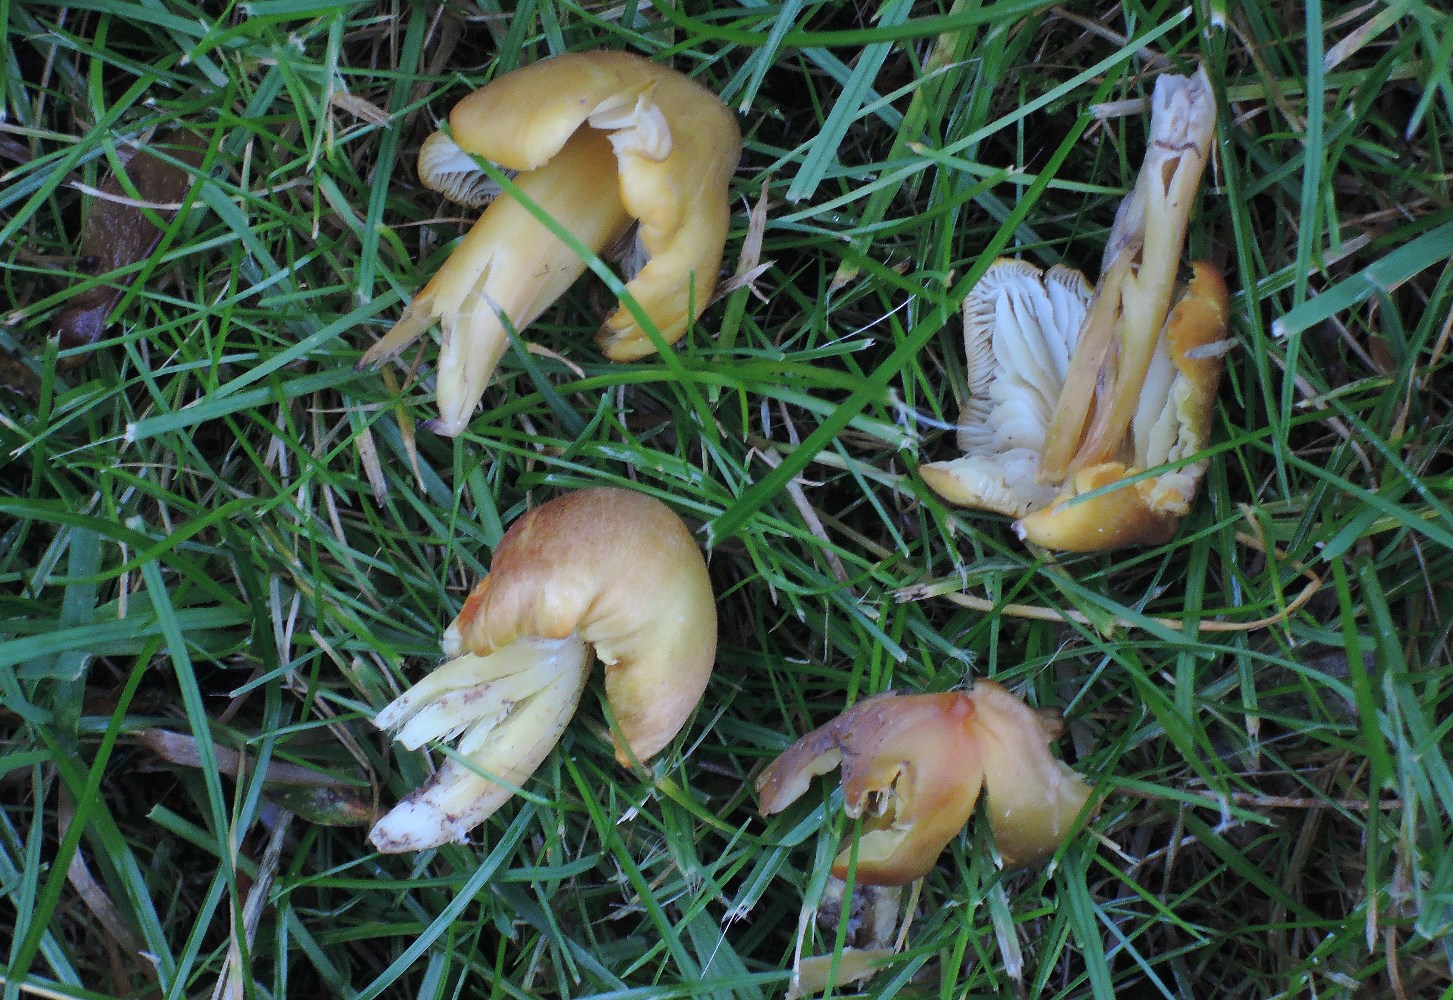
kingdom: Fungi
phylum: Basidiomycota
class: Agaricomycetes
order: Agaricales
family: Hygrophoraceae
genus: Hygrocybe
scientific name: Hygrocybe citrinovirens
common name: grøngul vokshat
